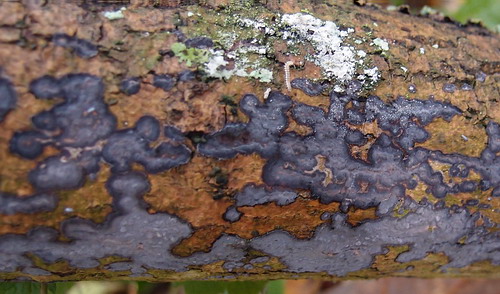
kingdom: Fungi
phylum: Basidiomycota
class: Agaricomycetes
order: Russulales
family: Peniophoraceae
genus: Peniophora
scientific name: Peniophora limitata
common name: mørkrandet voksskind
